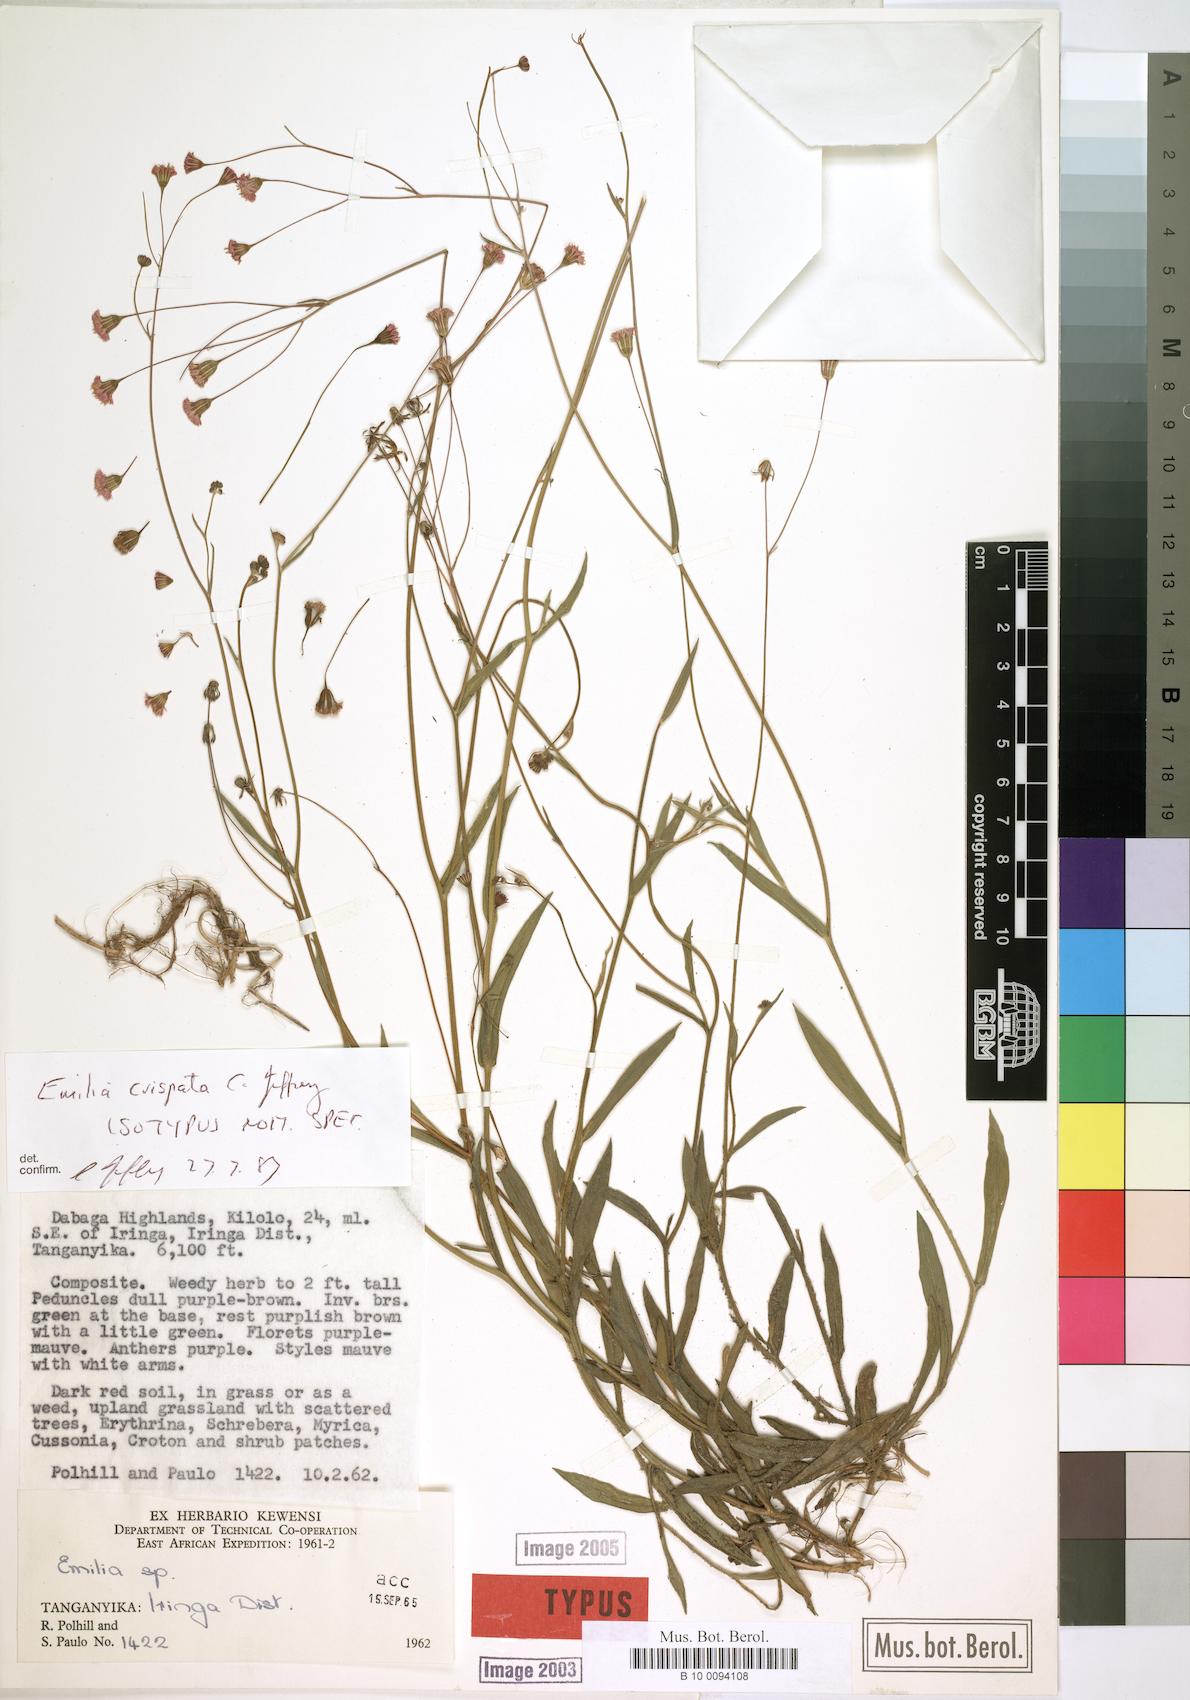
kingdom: Plantae
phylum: Tracheophyta
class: Magnoliopsida
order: Asterales
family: Asteraceae
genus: Emilia
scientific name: Emilia crispata
